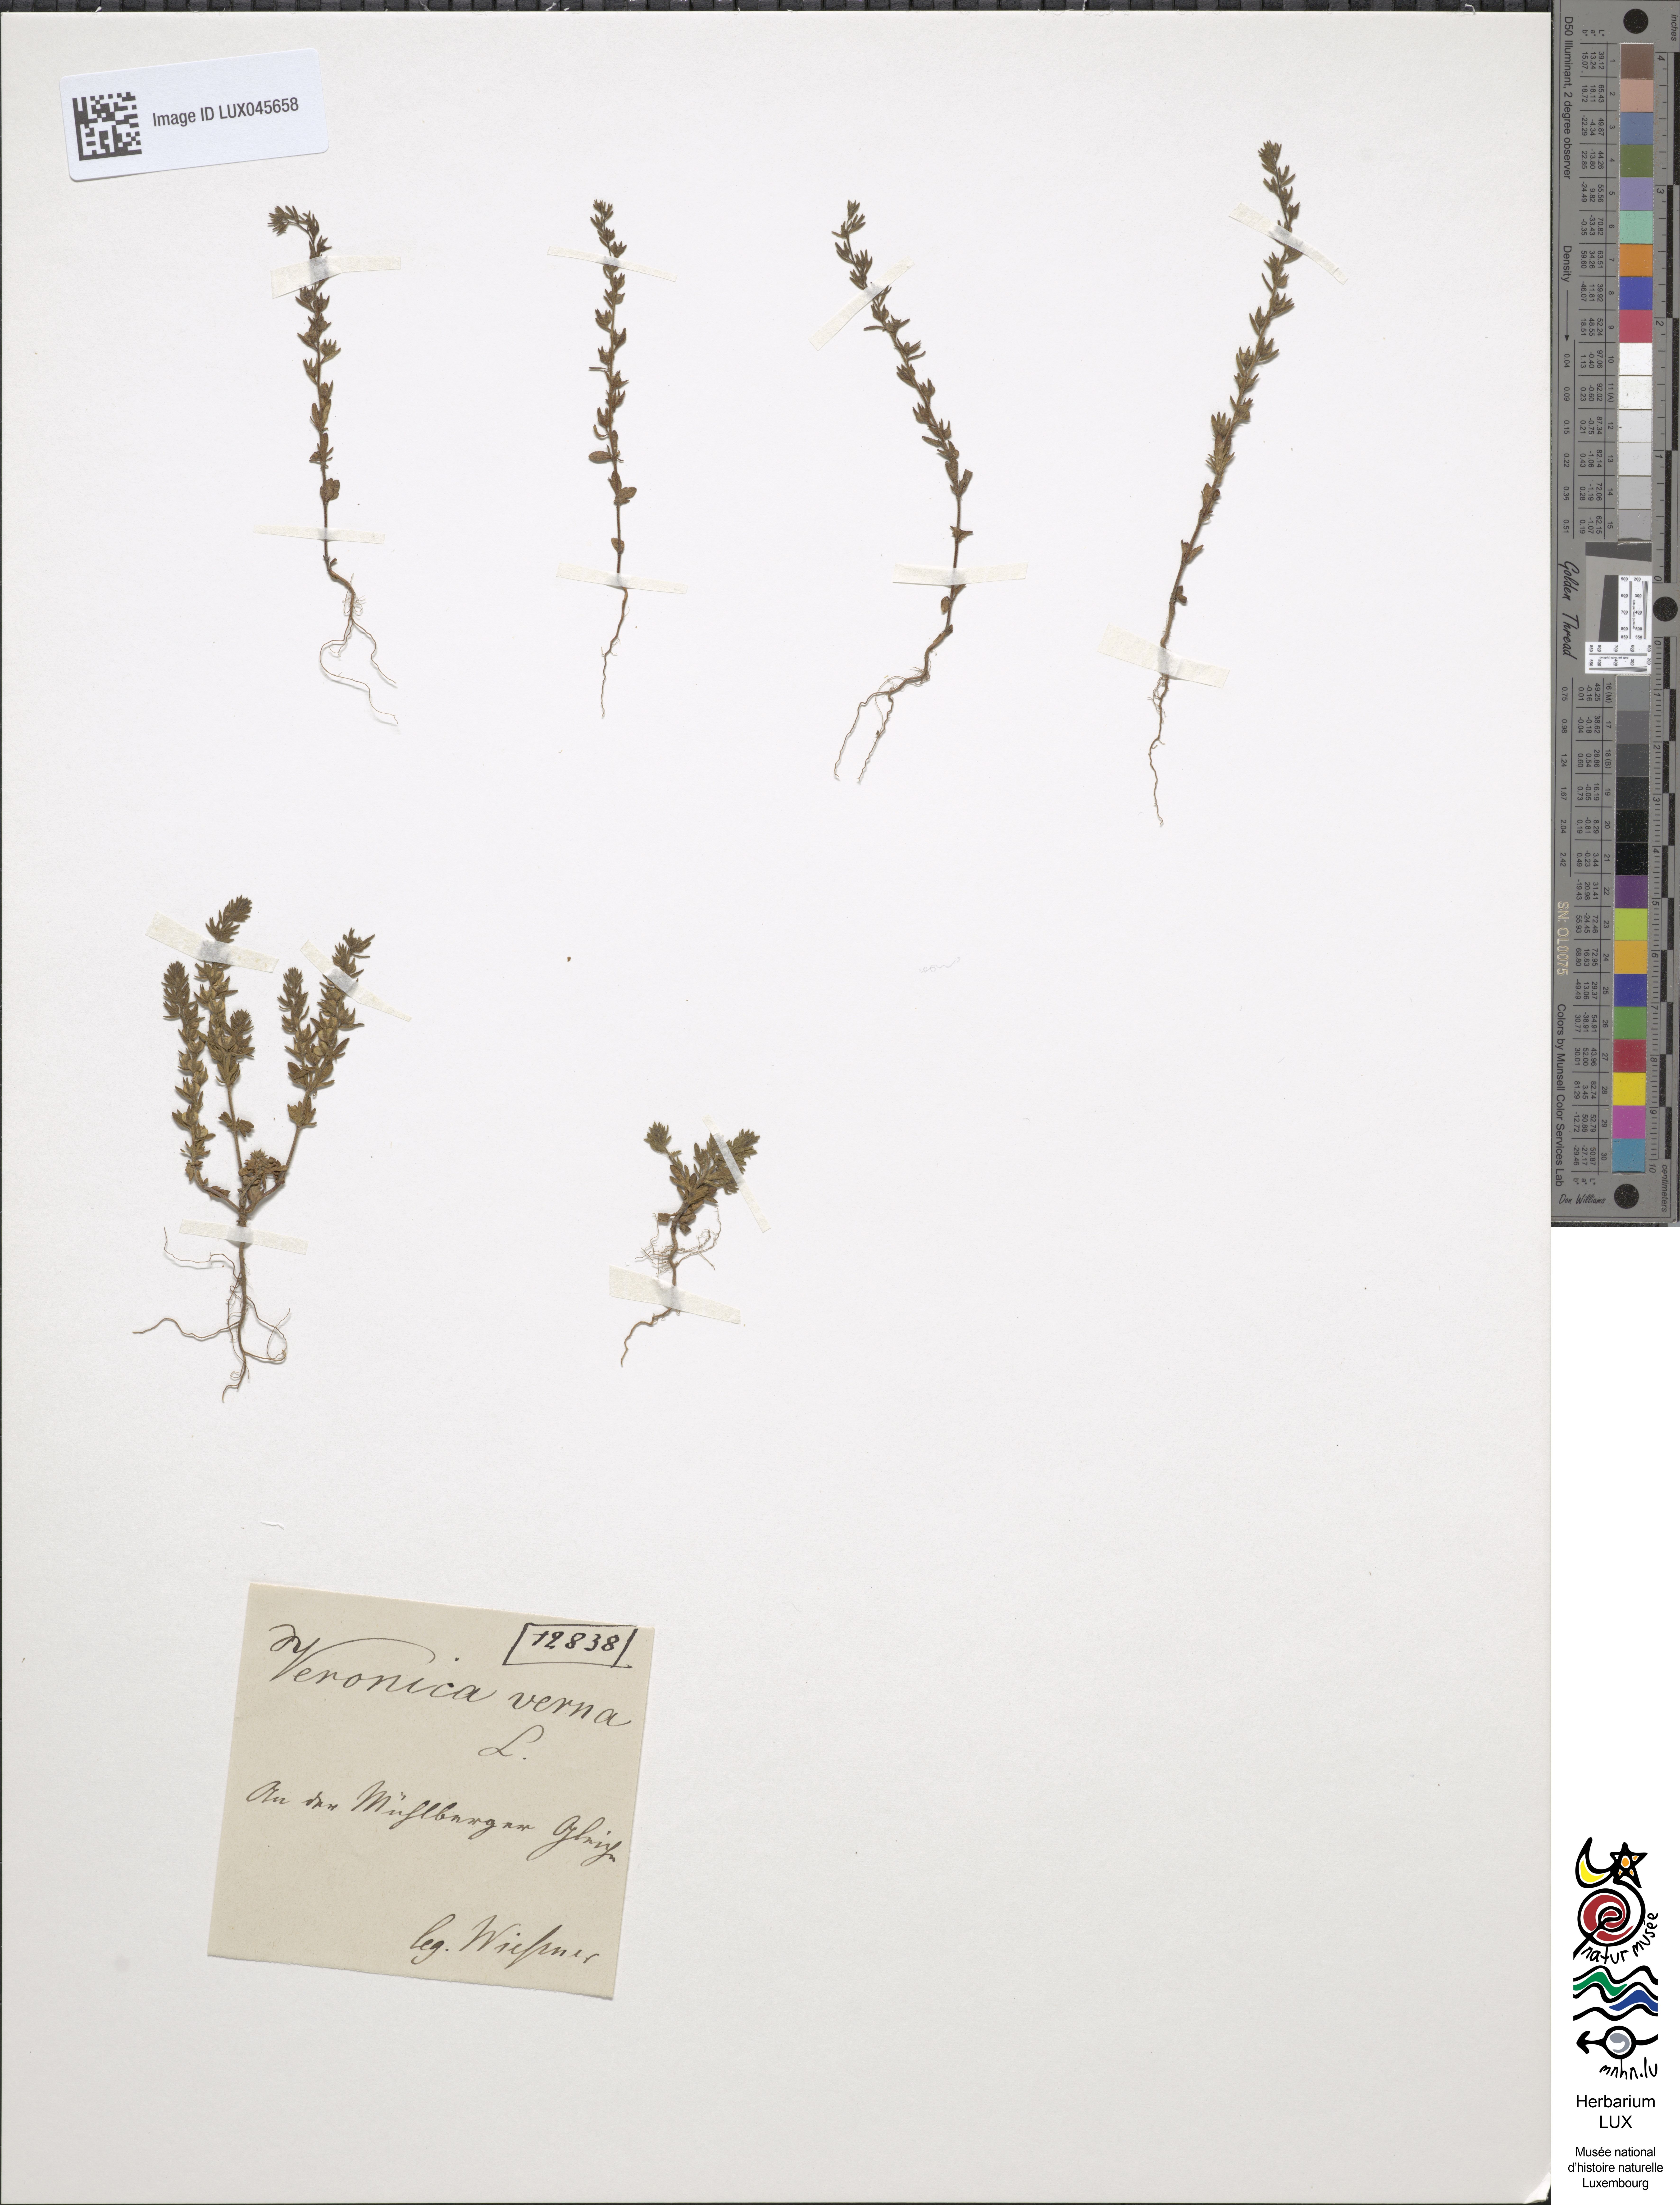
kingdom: Plantae
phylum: Tracheophyta
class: Magnoliopsida
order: Lamiales
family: Plantaginaceae
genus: Veronica
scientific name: Veronica verna
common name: Spring speedwell
